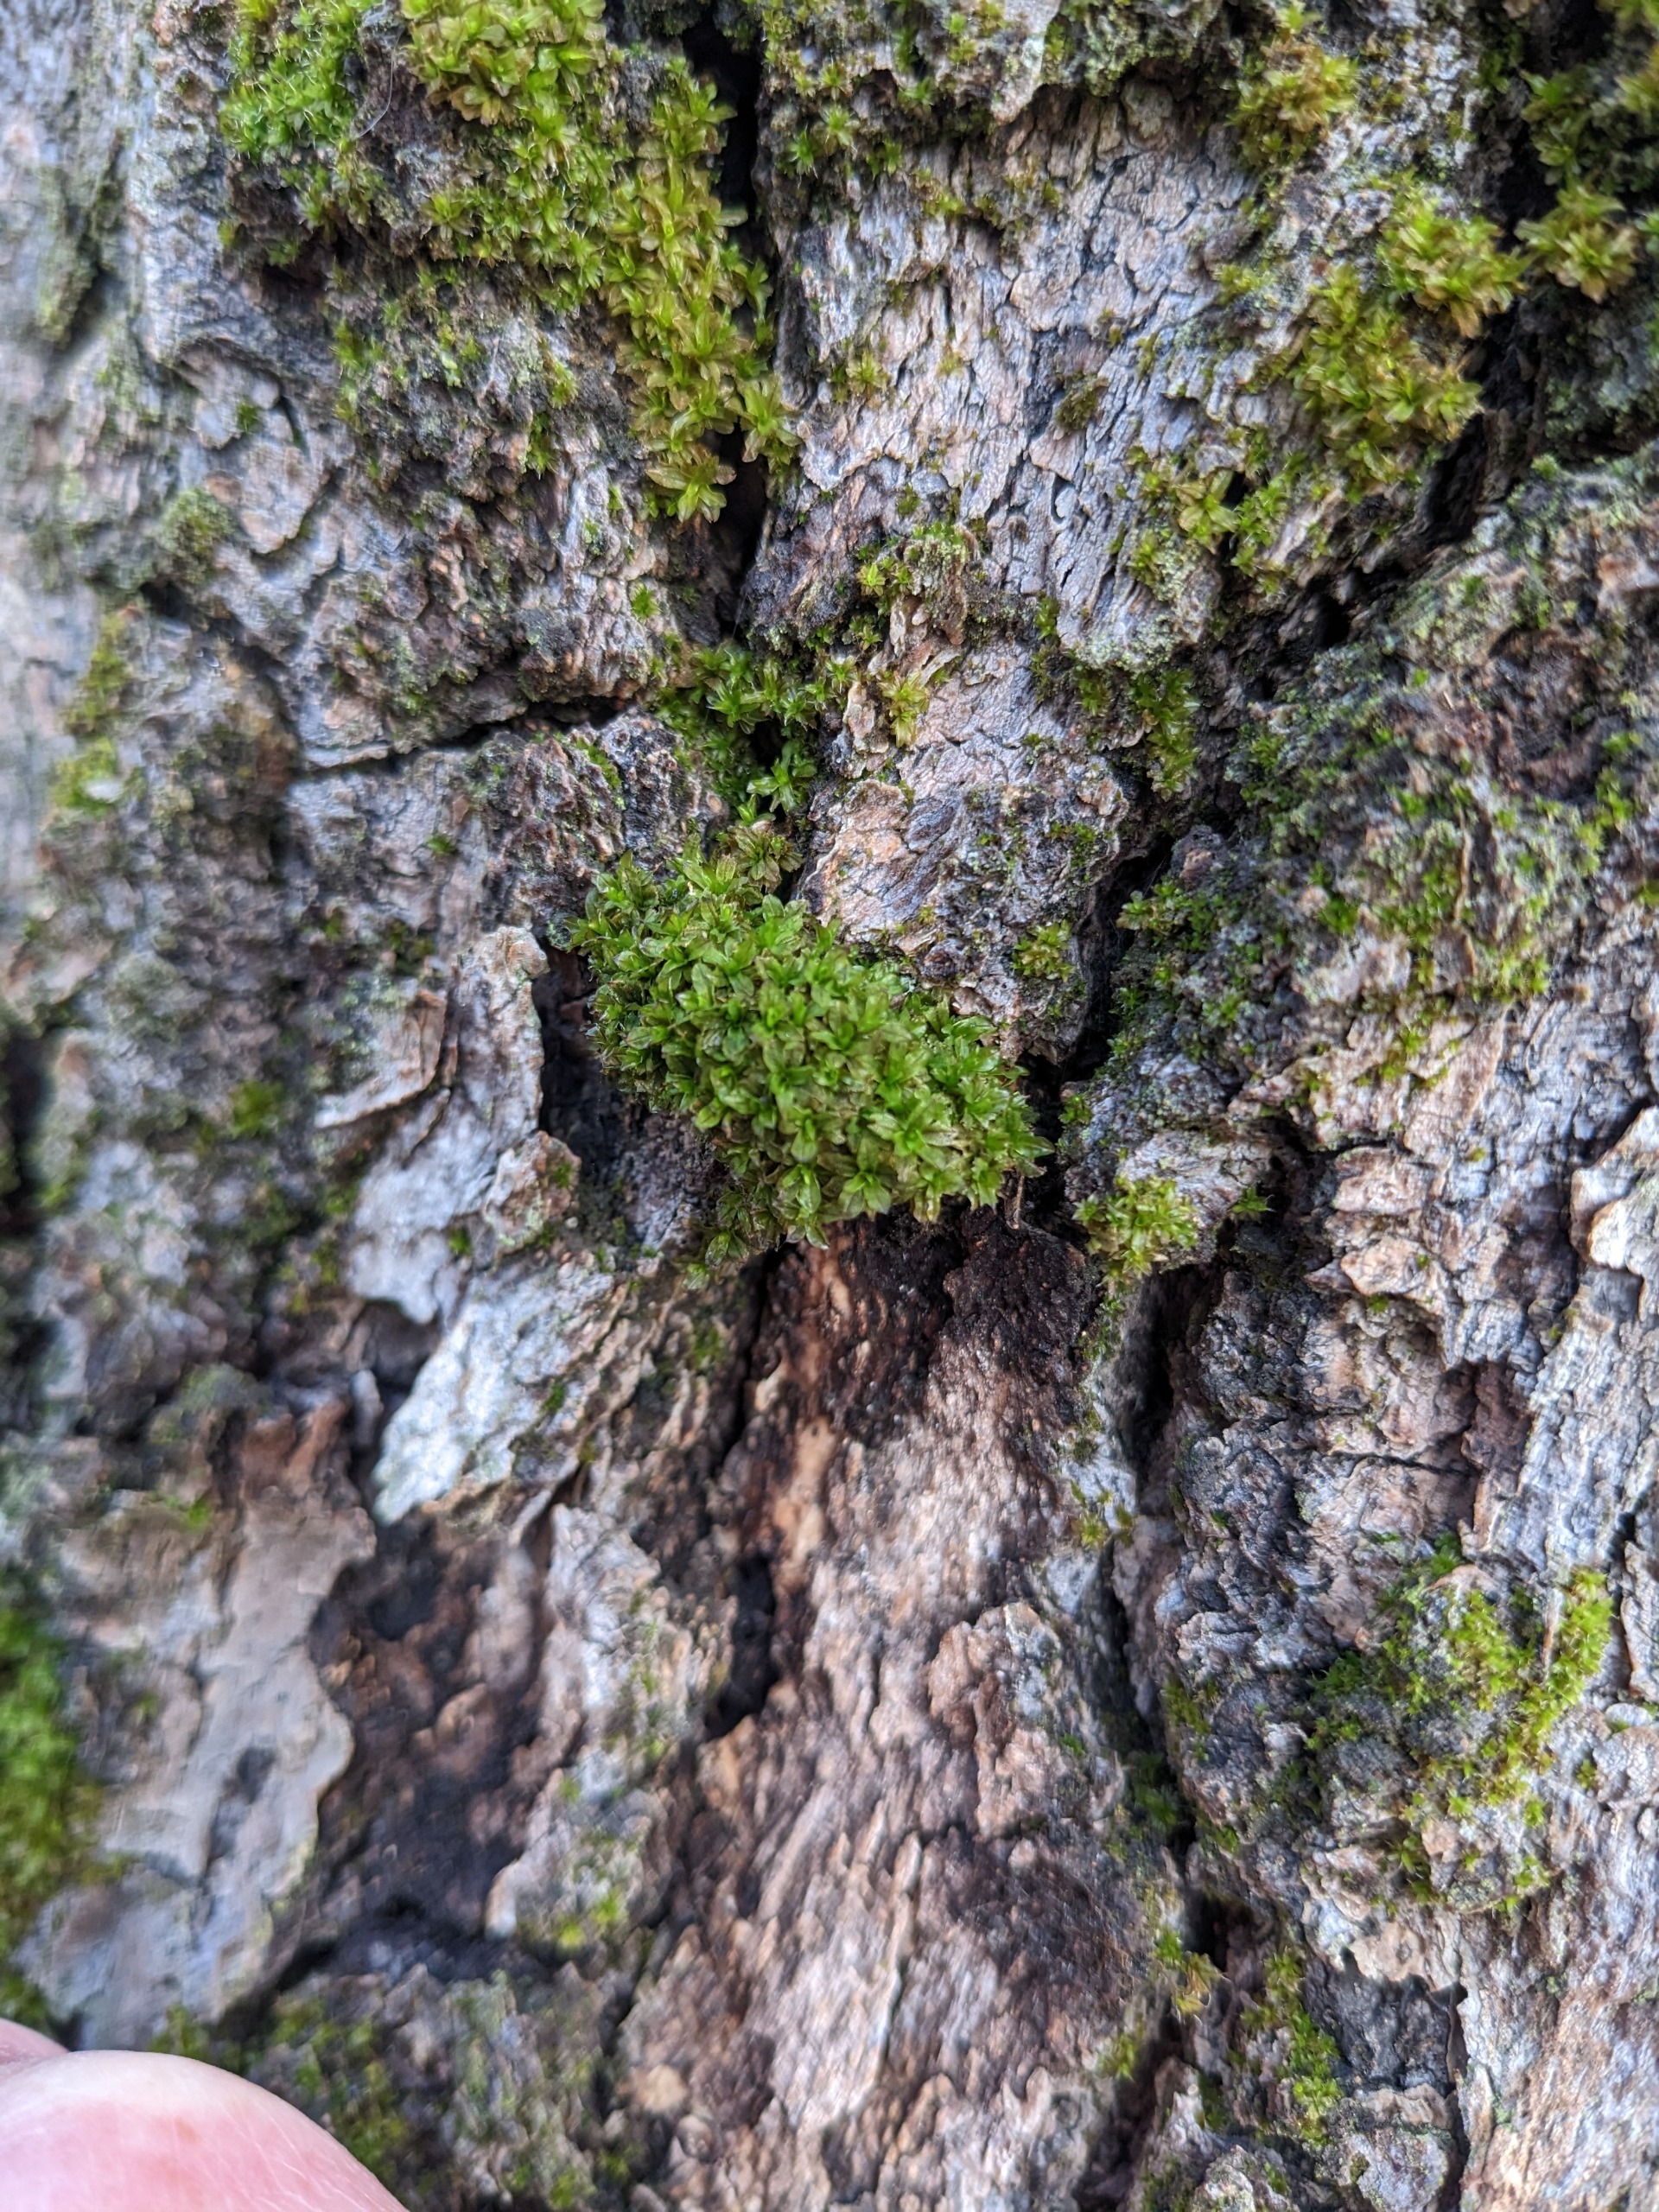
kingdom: Plantae
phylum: Bryophyta
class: Bryopsida
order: Pottiales
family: Pottiaceae
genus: Syntrichia
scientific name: Syntrichia latifolia
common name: Butbladet hårstjerne
